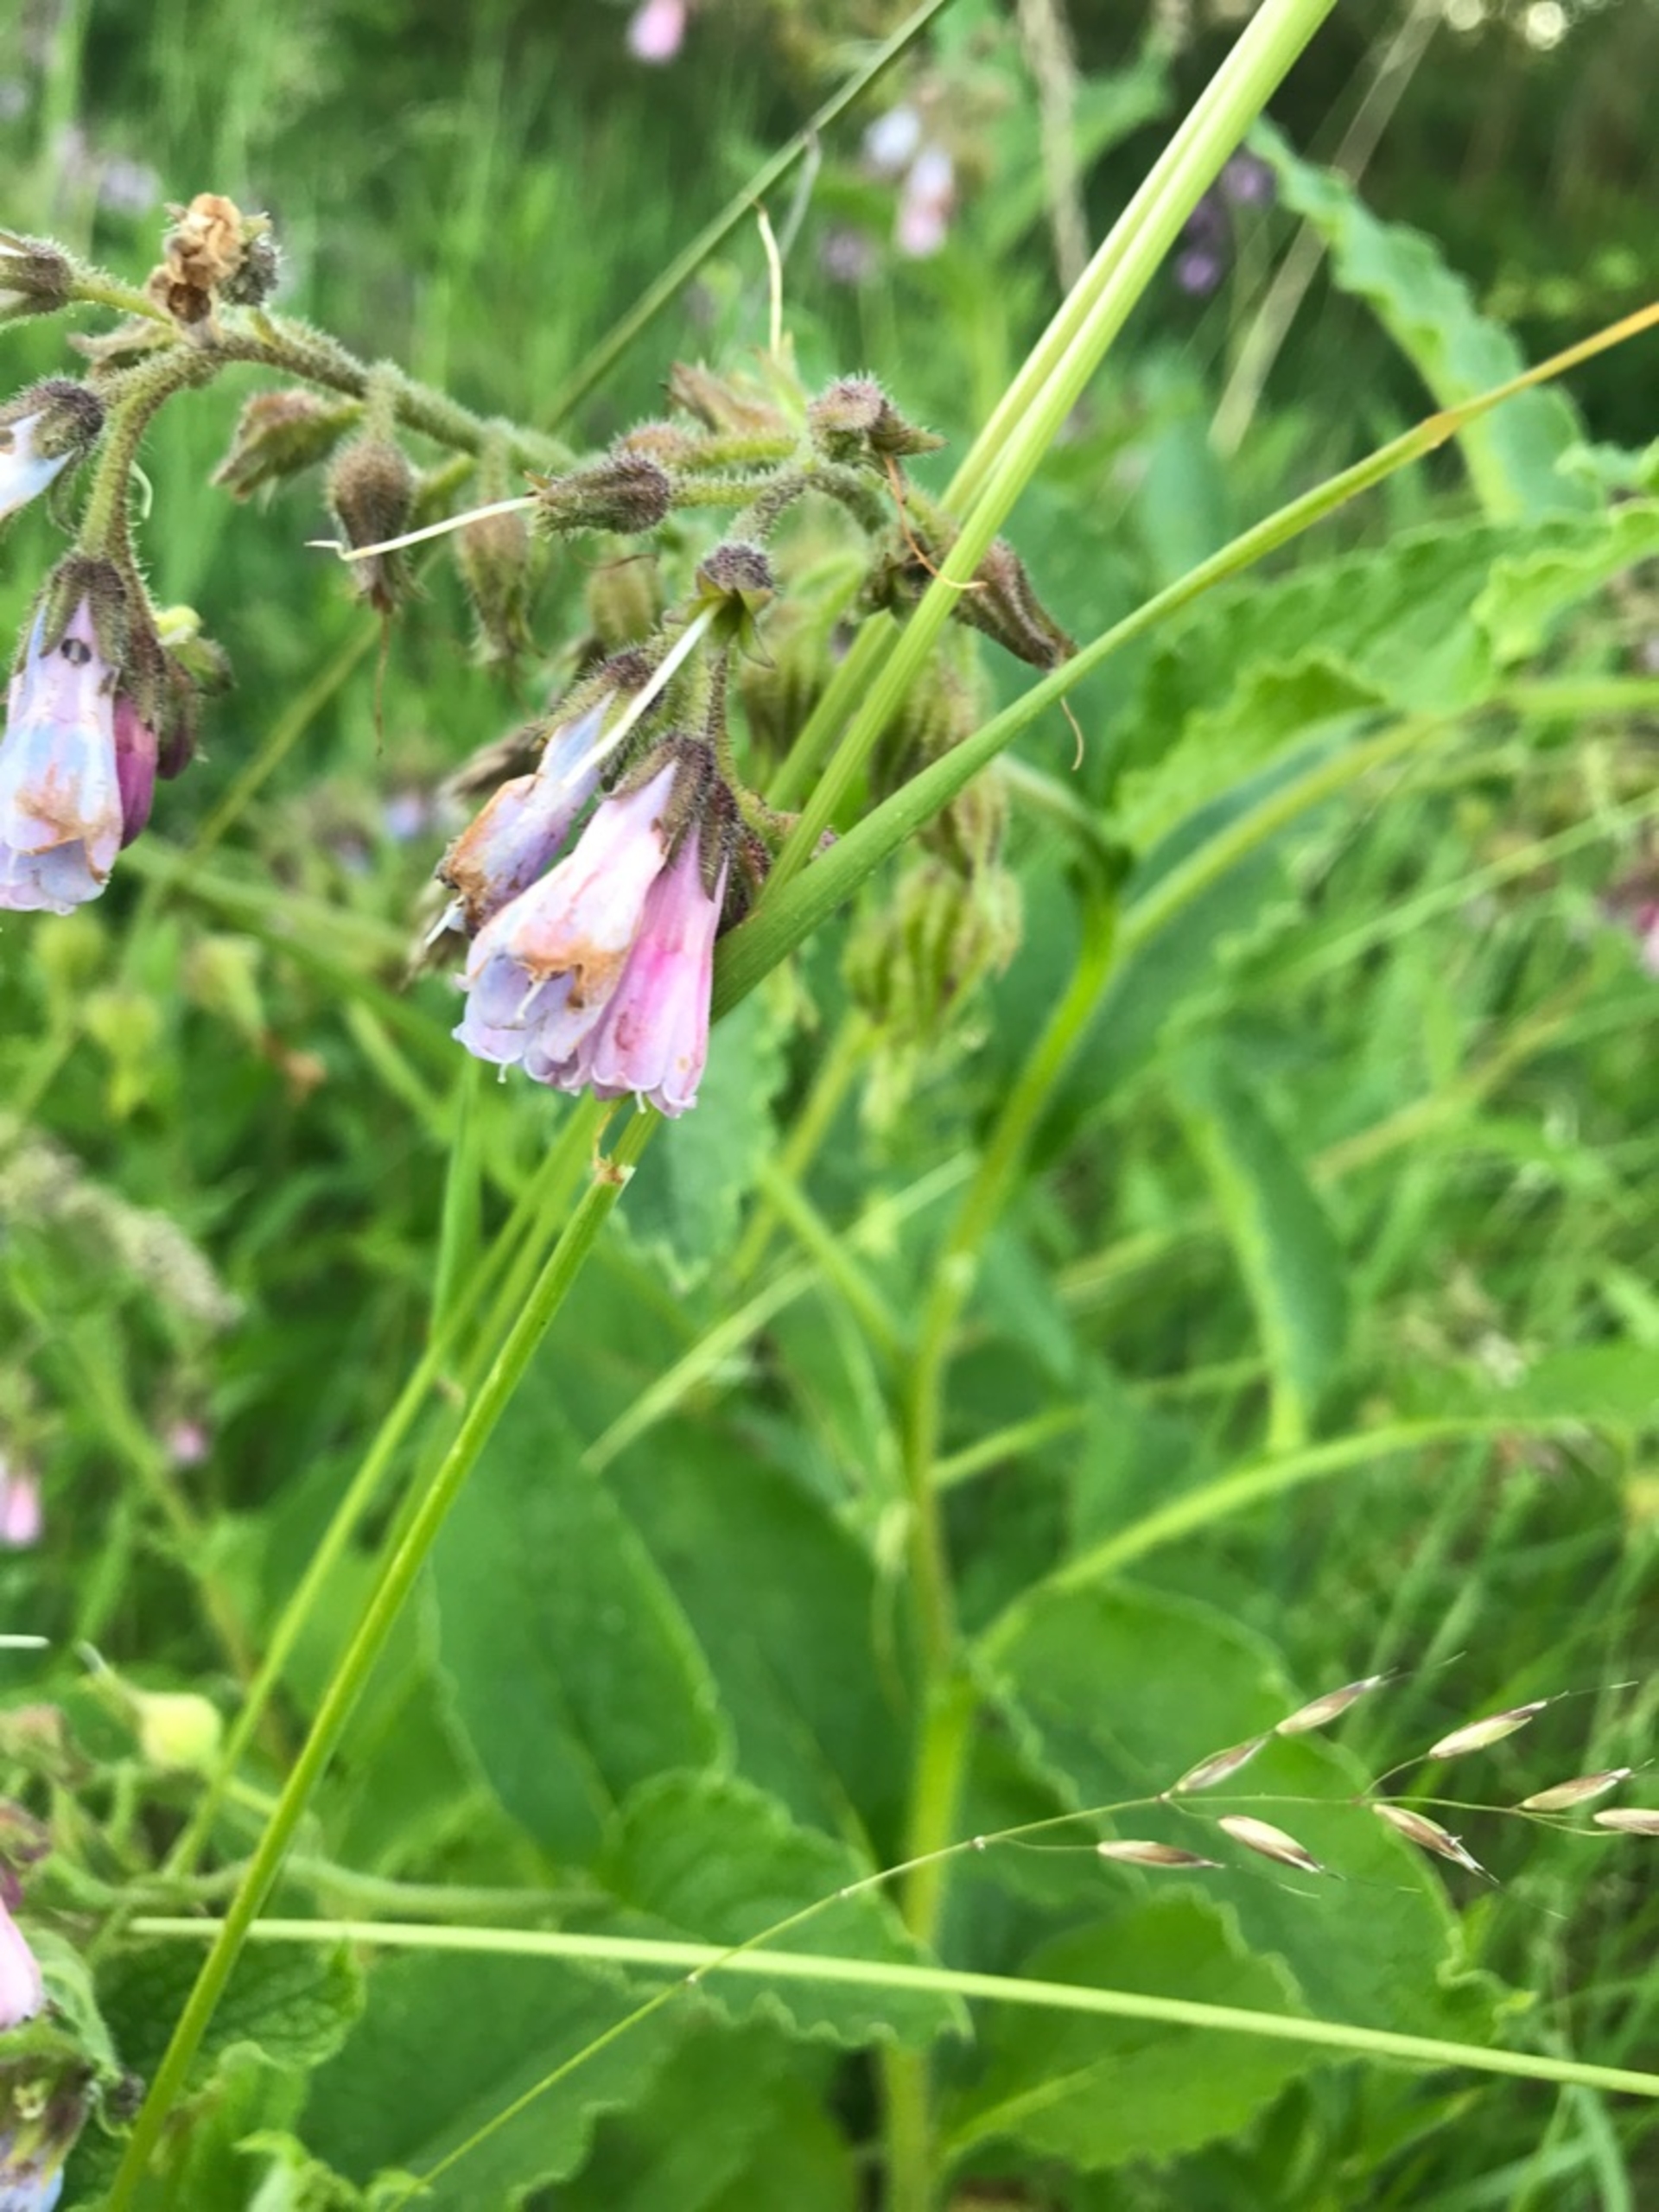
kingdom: Plantae
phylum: Tracheophyta
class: Magnoliopsida
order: Boraginales
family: Boraginaceae
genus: Symphytum
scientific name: Symphytum uplandicum
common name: Foder-kulsukker
